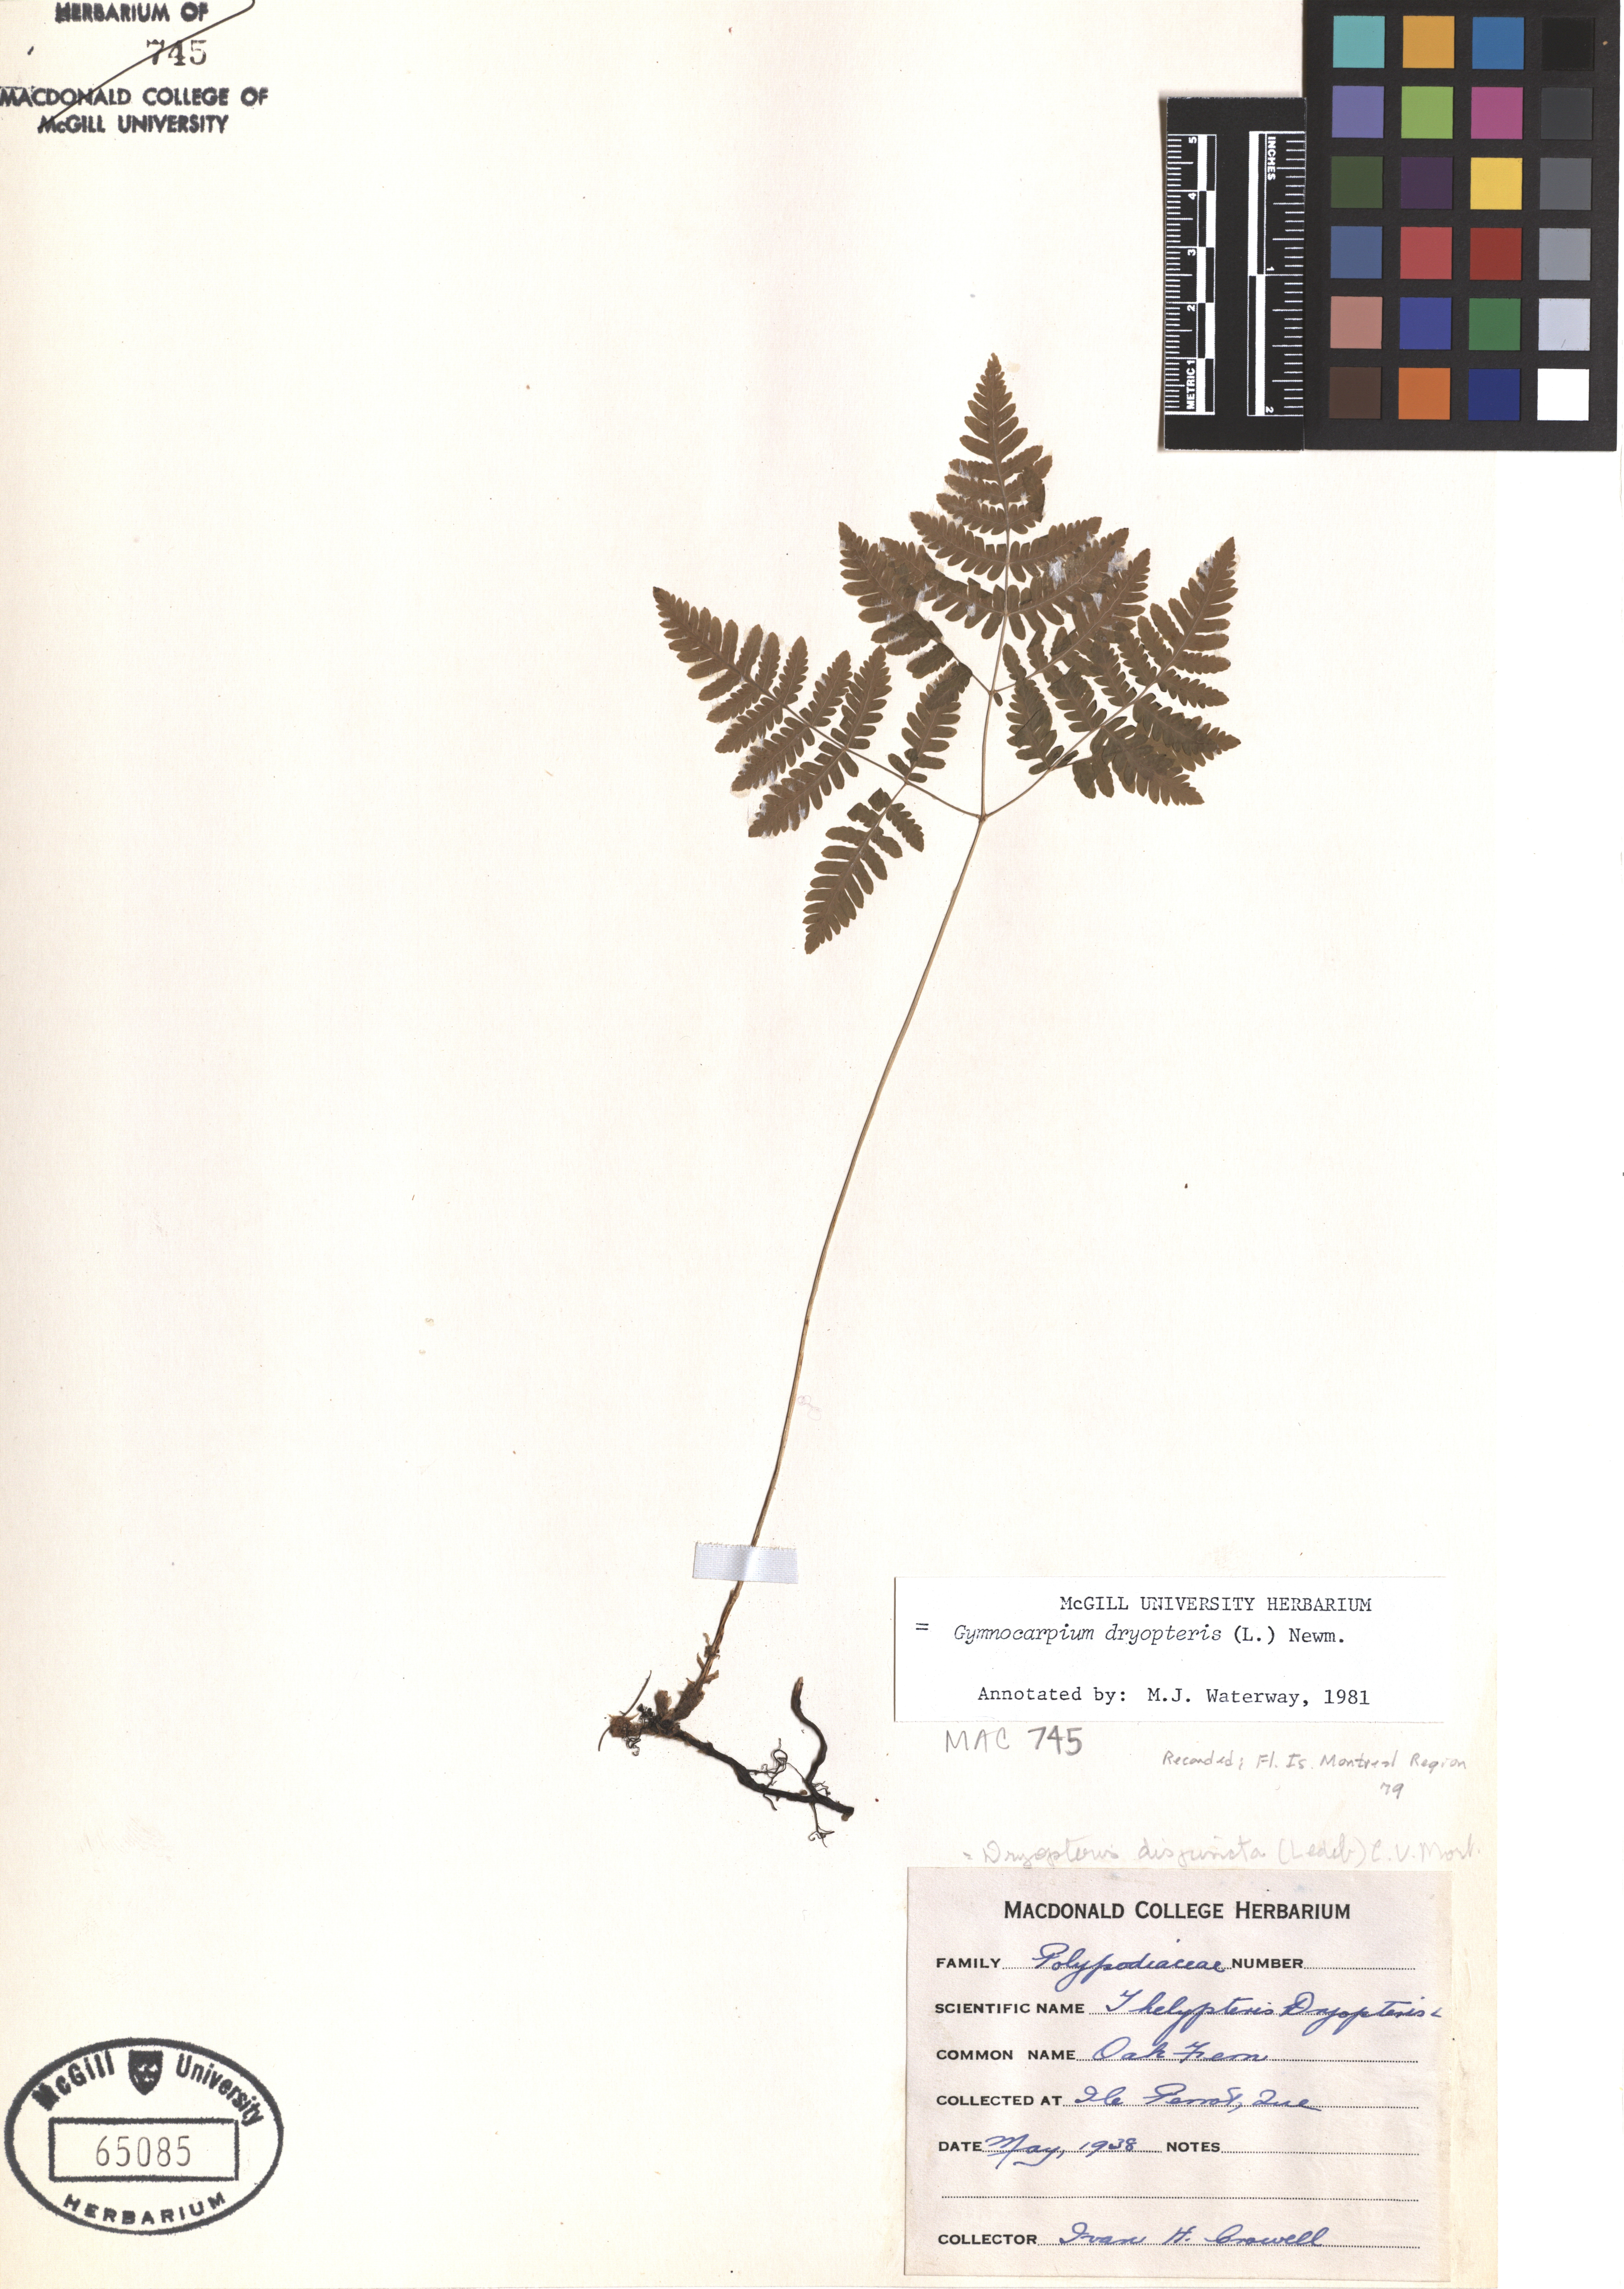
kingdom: Plantae
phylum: Tracheophyta
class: Polypodiopsida
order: Polypodiales
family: Cystopteridaceae
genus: Gymnocarpium
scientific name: Gymnocarpium dryopteris
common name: Oak fern
